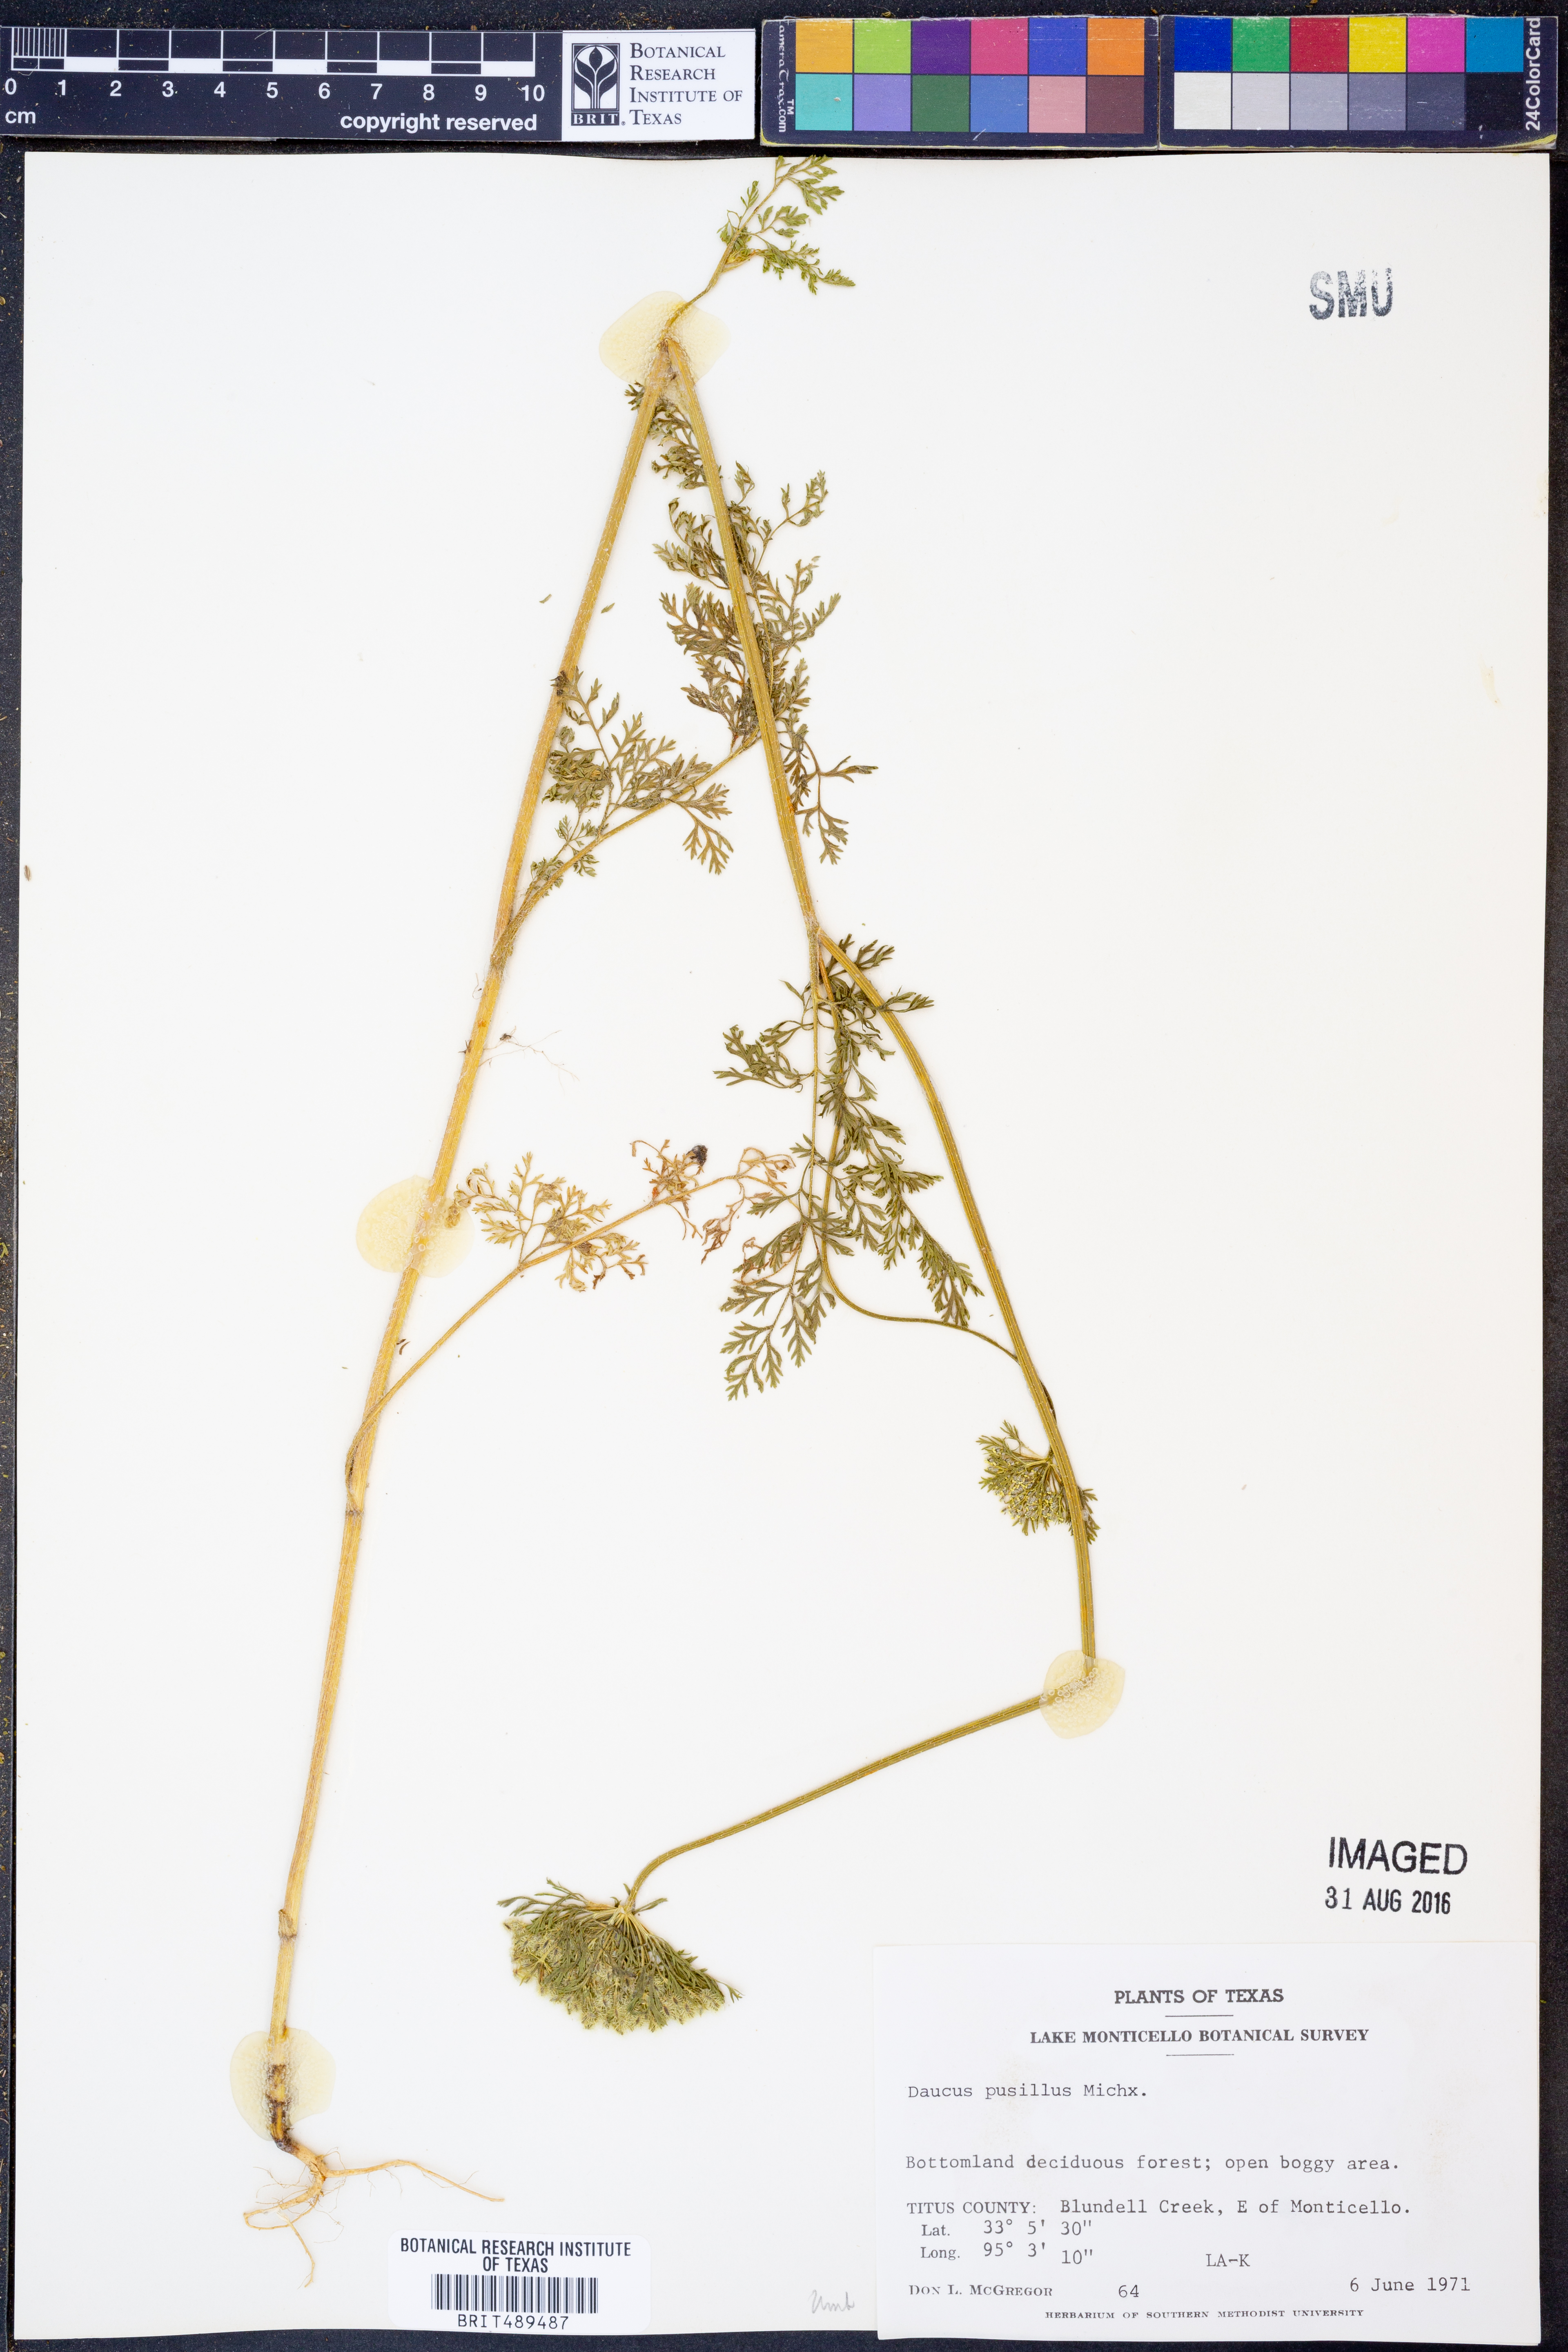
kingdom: Plantae
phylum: Tracheophyta
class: Magnoliopsida
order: Apiales
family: Apiaceae
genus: Daucus
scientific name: Daucus pusillus
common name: Southwest wild carrot
